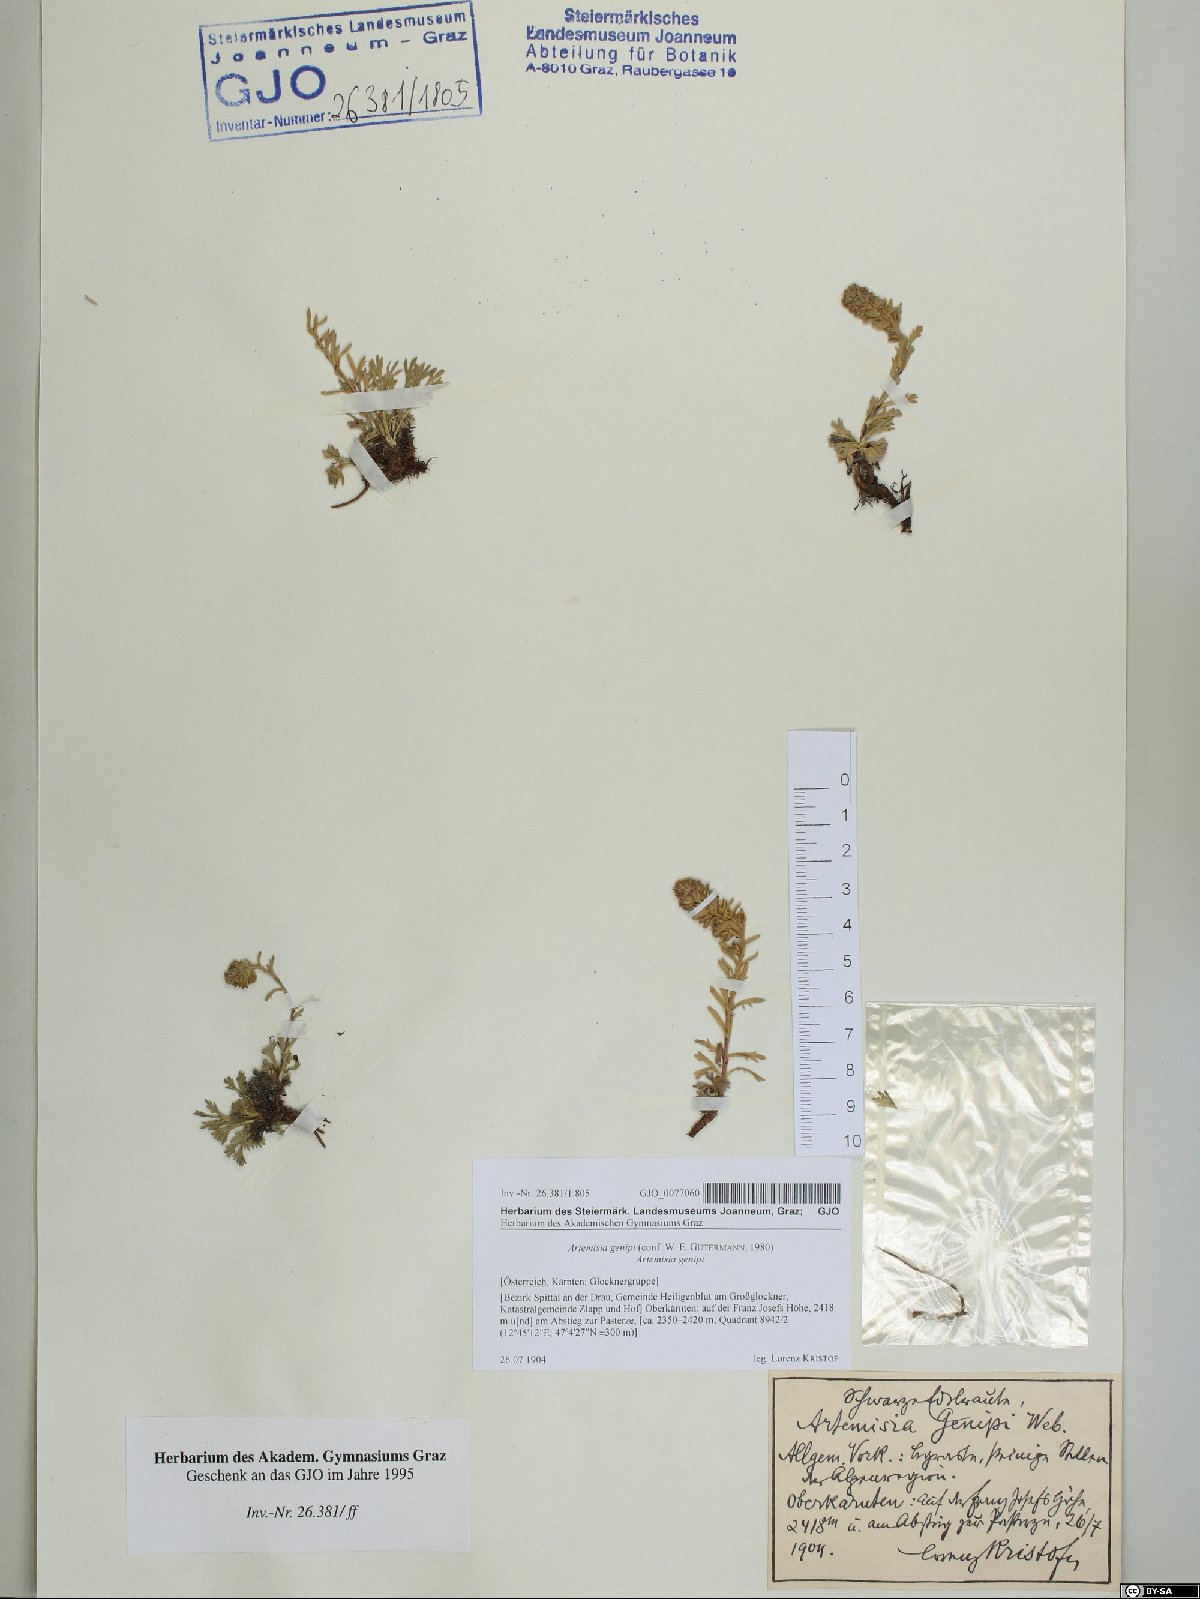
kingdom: Plantae
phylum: Tracheophyta
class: Magnoliopsida
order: Asterales
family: Asteraceae
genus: Artemisia
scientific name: Artemisia genipi
